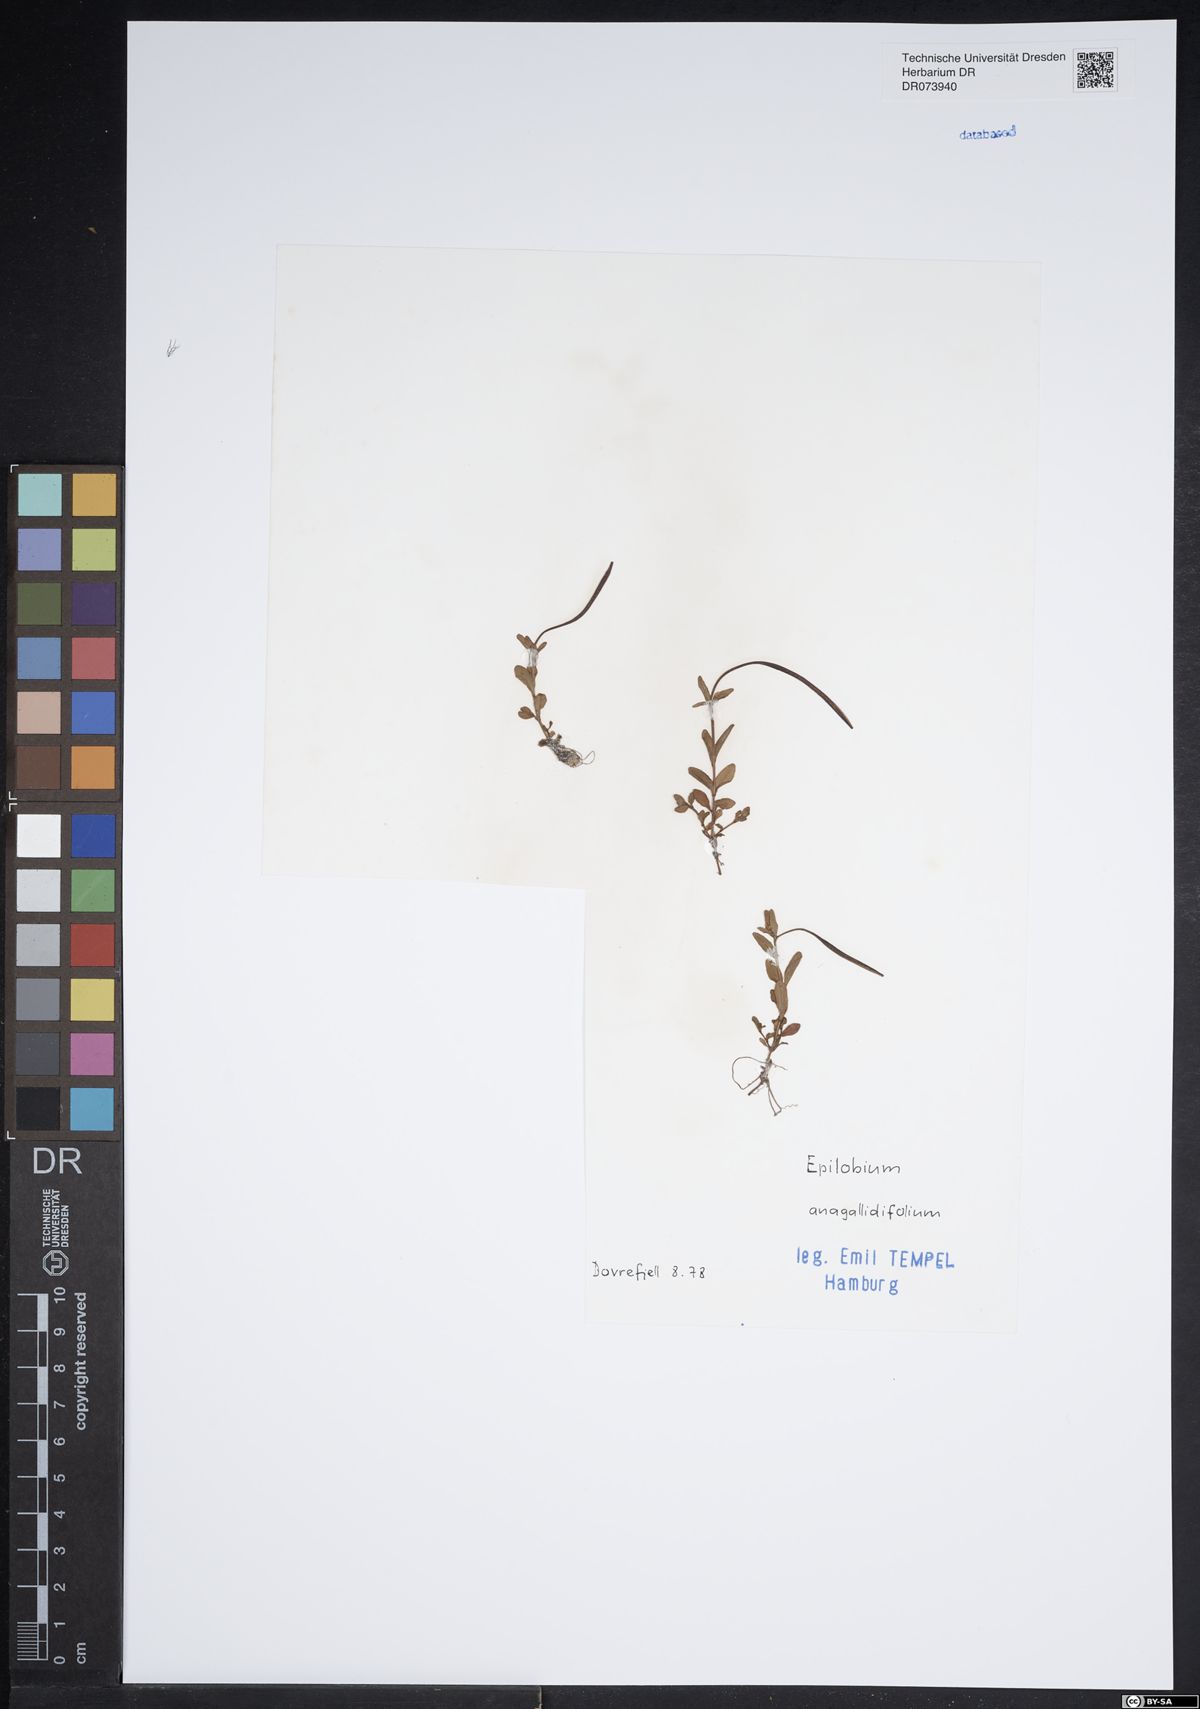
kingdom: Plantae
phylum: Tracheophyta
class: Magnoliopsida
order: Myrtales
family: Onagraceae
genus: Epilobium
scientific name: Epilobium anagallidifolium
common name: Alpine willowherb
